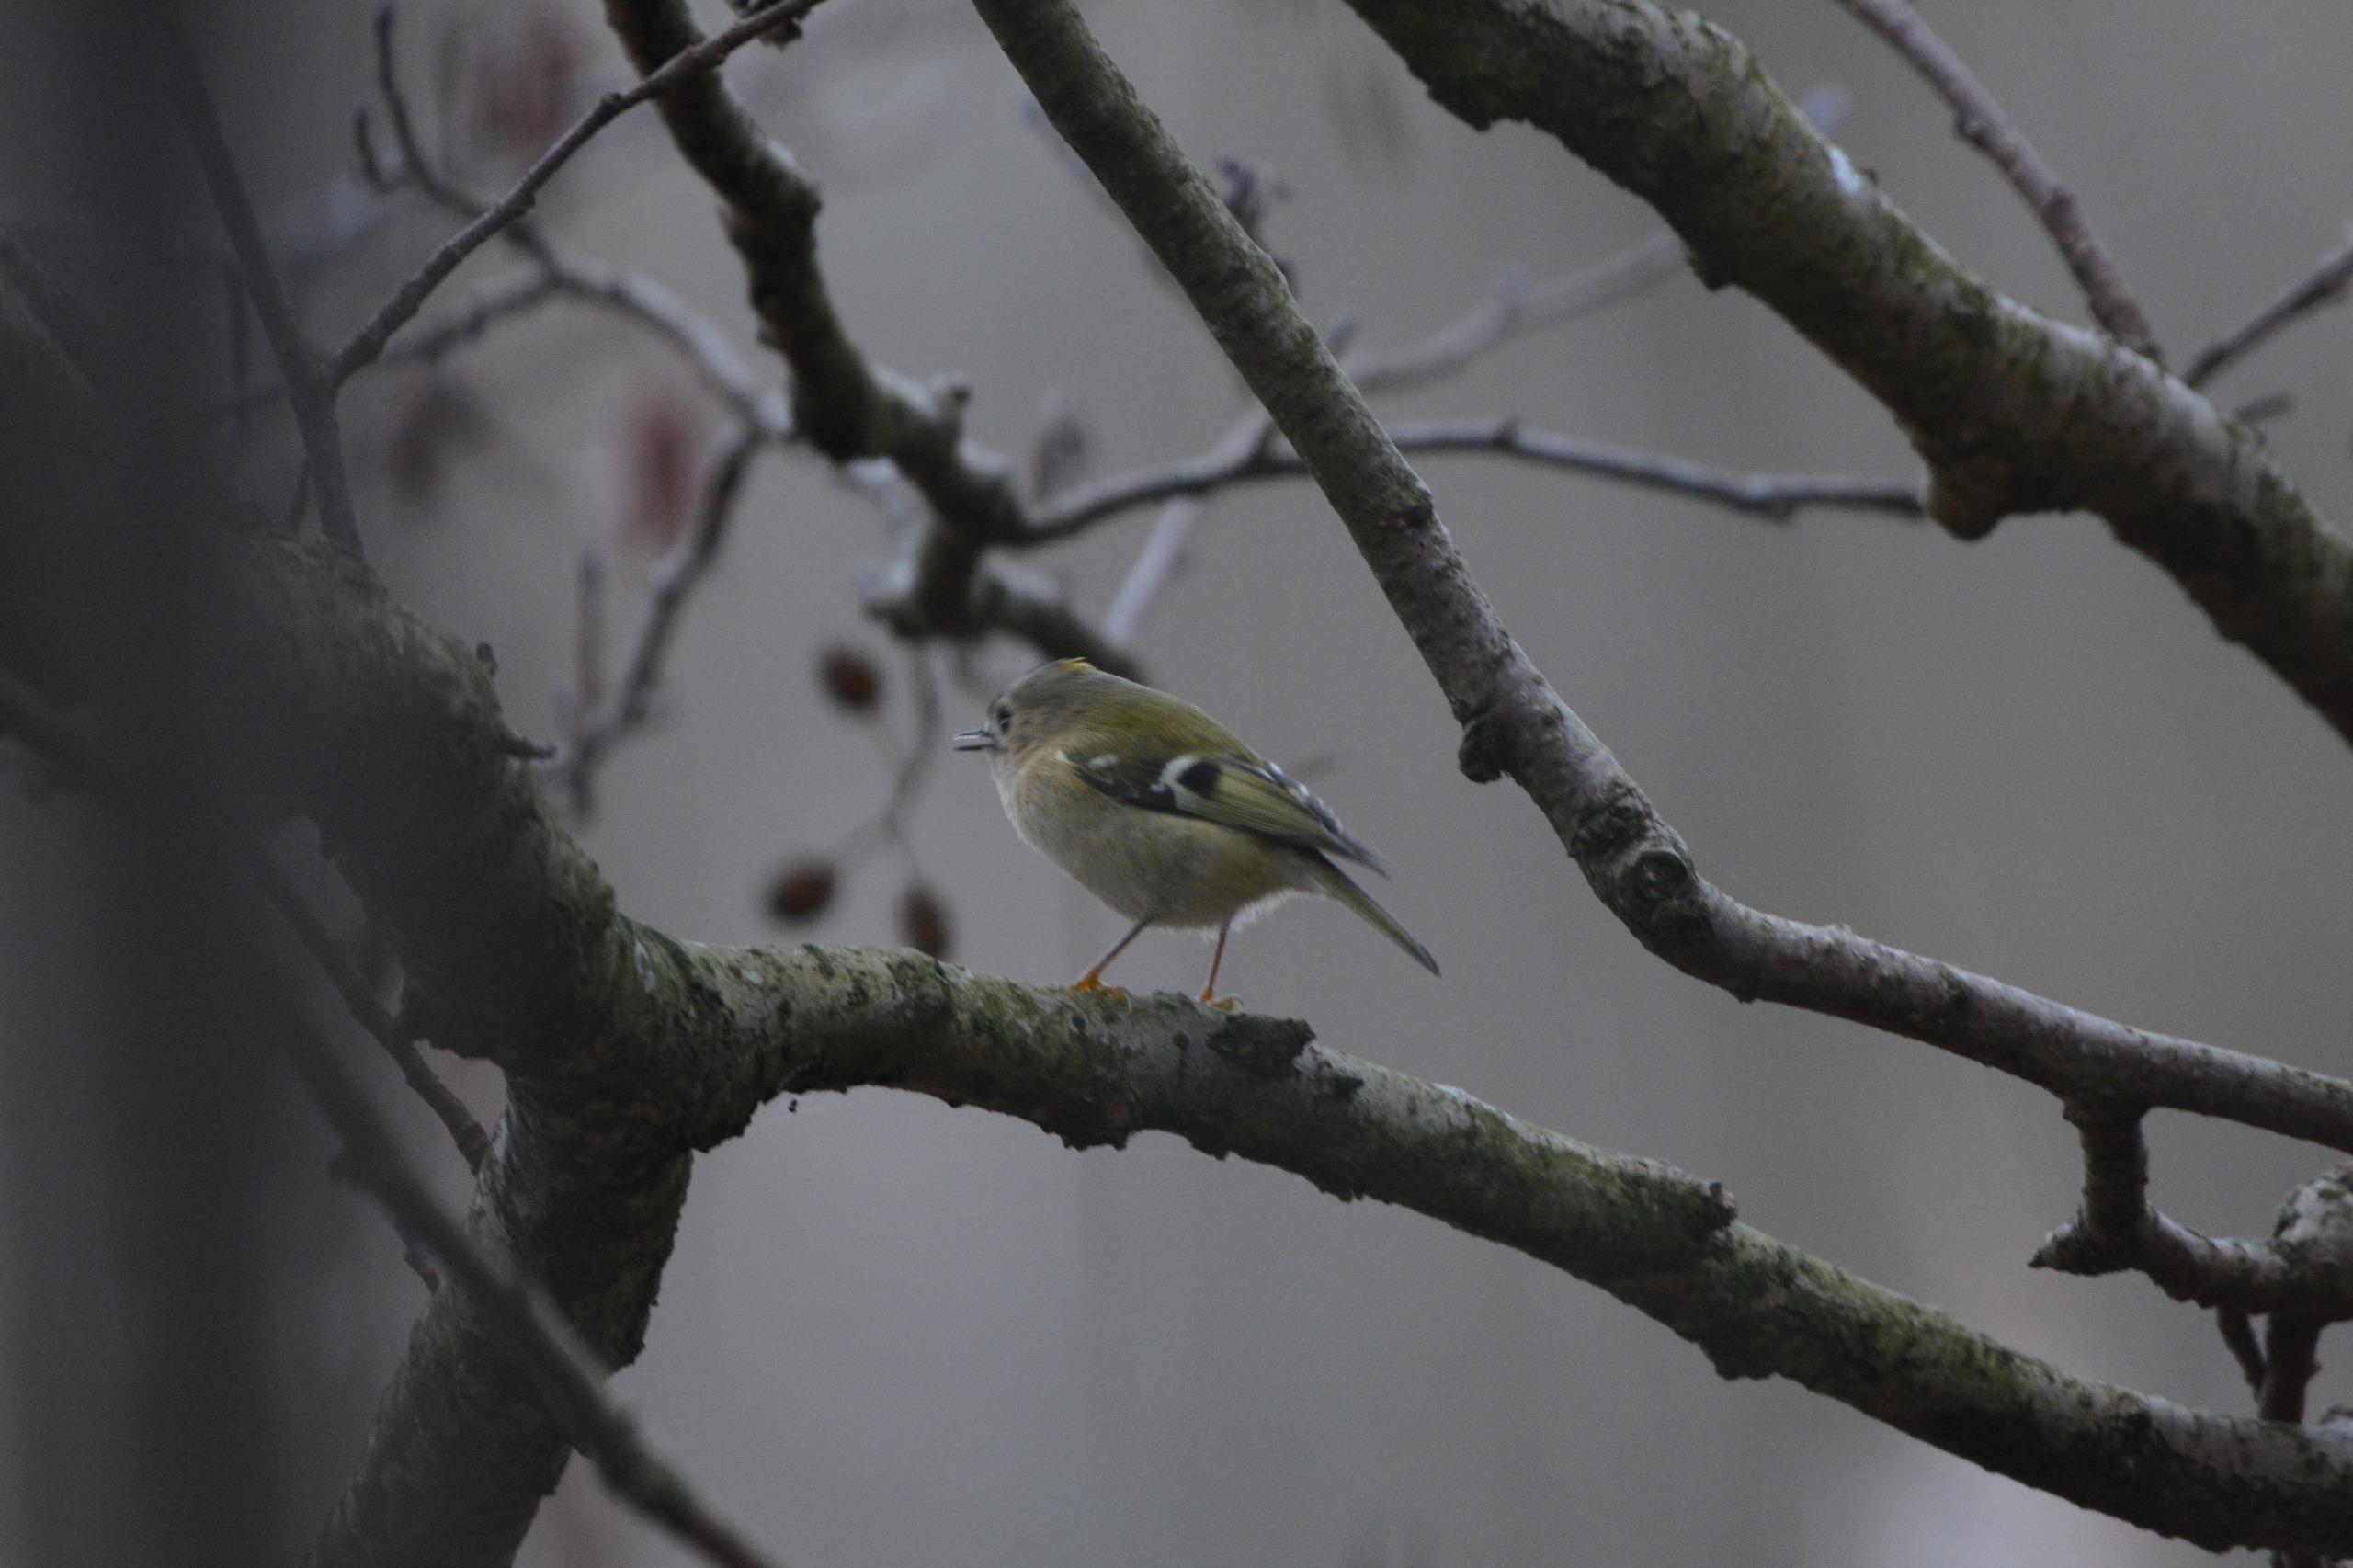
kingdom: Animalia
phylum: Chordata
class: Aves
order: Passeriformes
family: Regulidae
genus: Regulus
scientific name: Regulus regulus
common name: Fuglekonge
